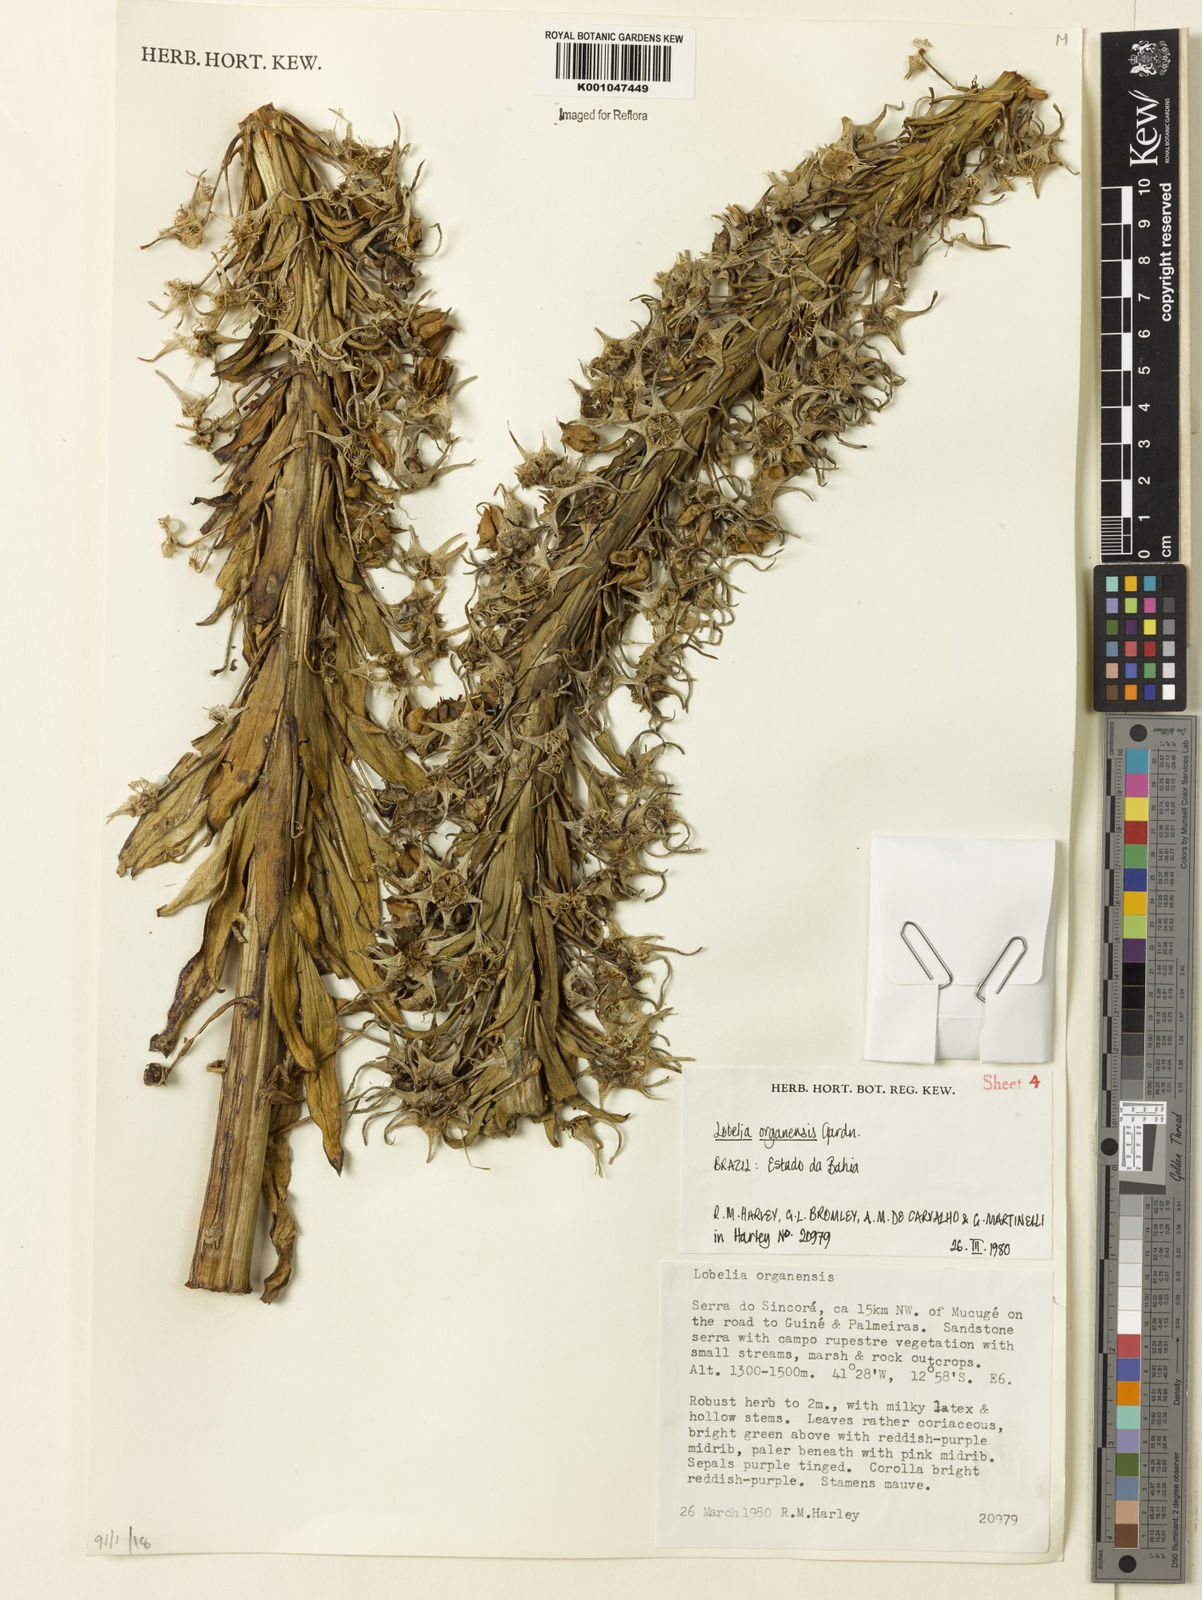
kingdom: Plantae
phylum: Tracheophyta
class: Magnoliopsida
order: Asterales
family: Campanulaceae
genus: Lobelia
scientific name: Lobelia organensis
